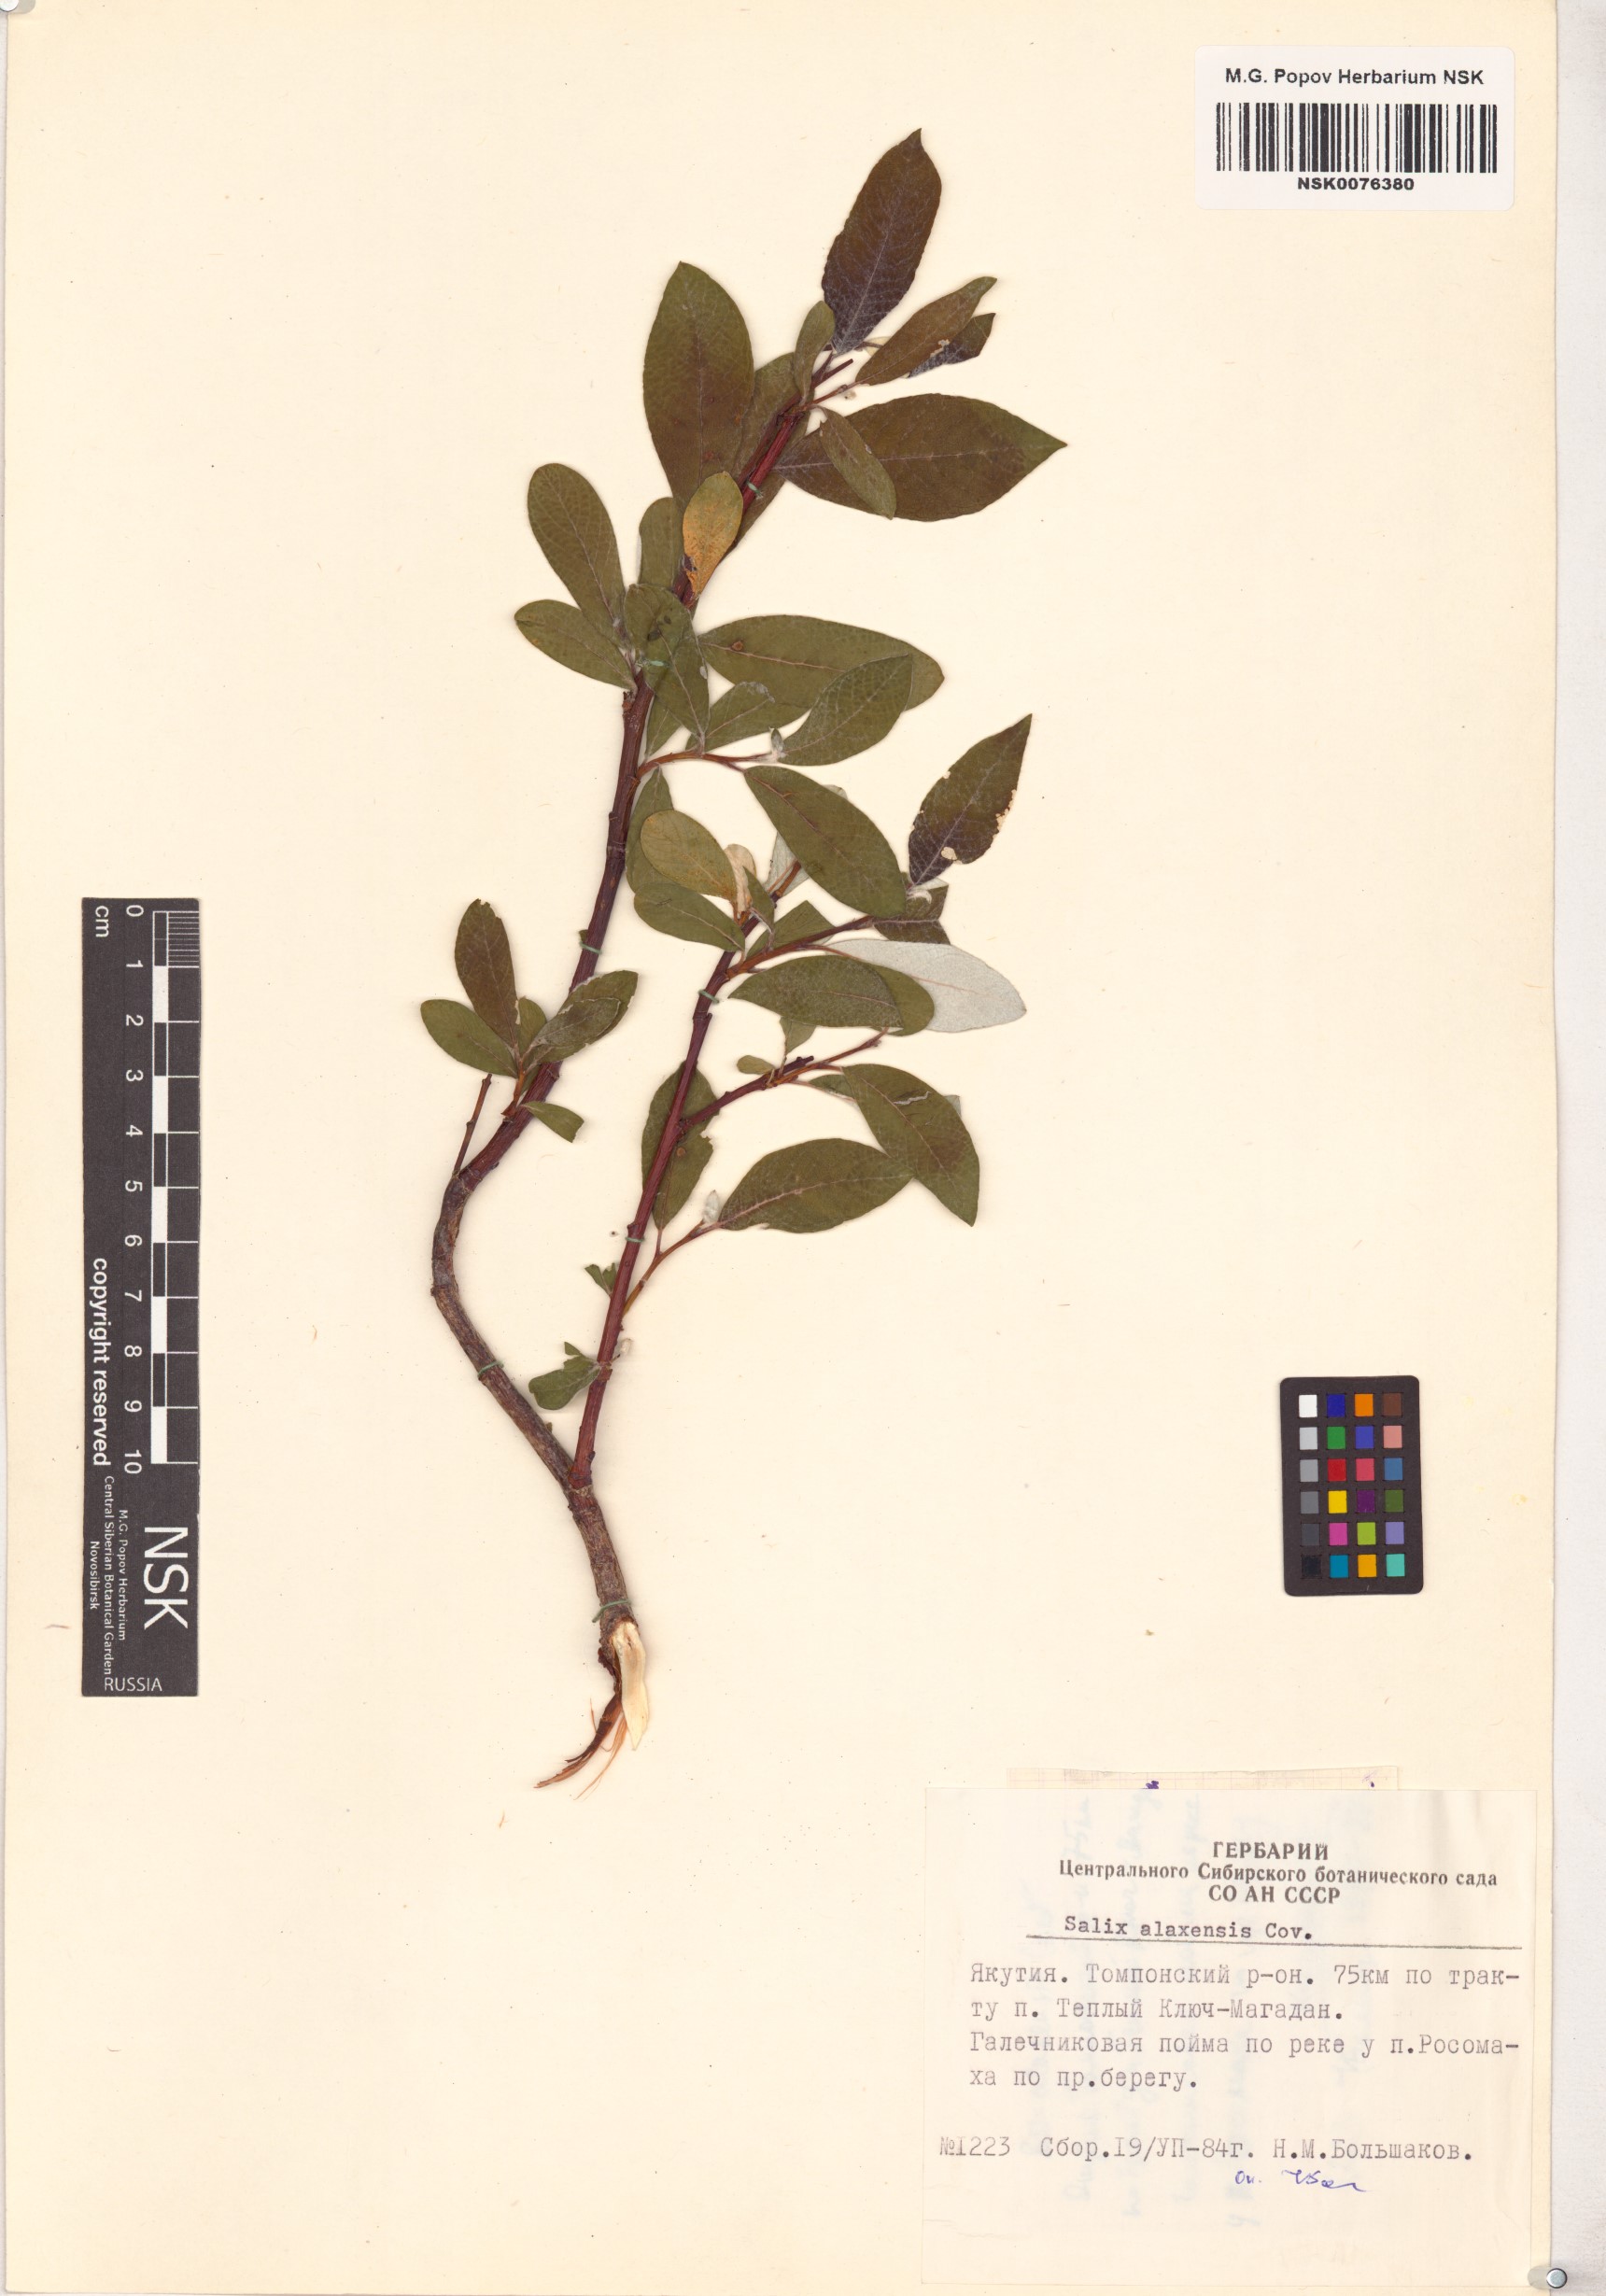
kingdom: Plantae
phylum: Tracheophyta
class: Magnoliopsida
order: Malpighiales
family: Salicaceae
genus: Salix
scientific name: Salix alaxensis
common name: Feltleaf willow
